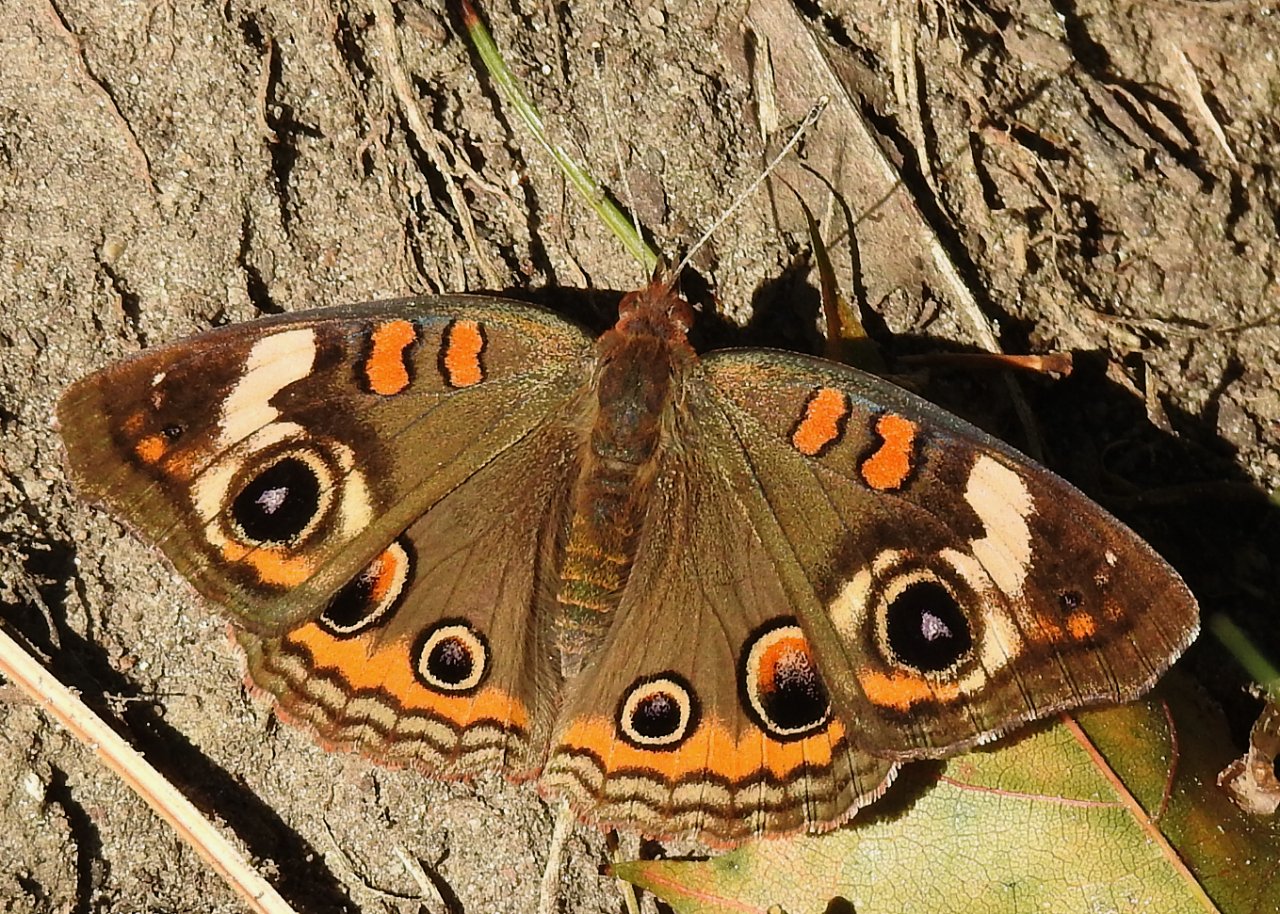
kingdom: Animalia
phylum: Arthropoda
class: Insecta
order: Lepidoptera
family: Nymphalidae
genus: Junonia
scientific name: Junonia coenia
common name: Common Buckeye
